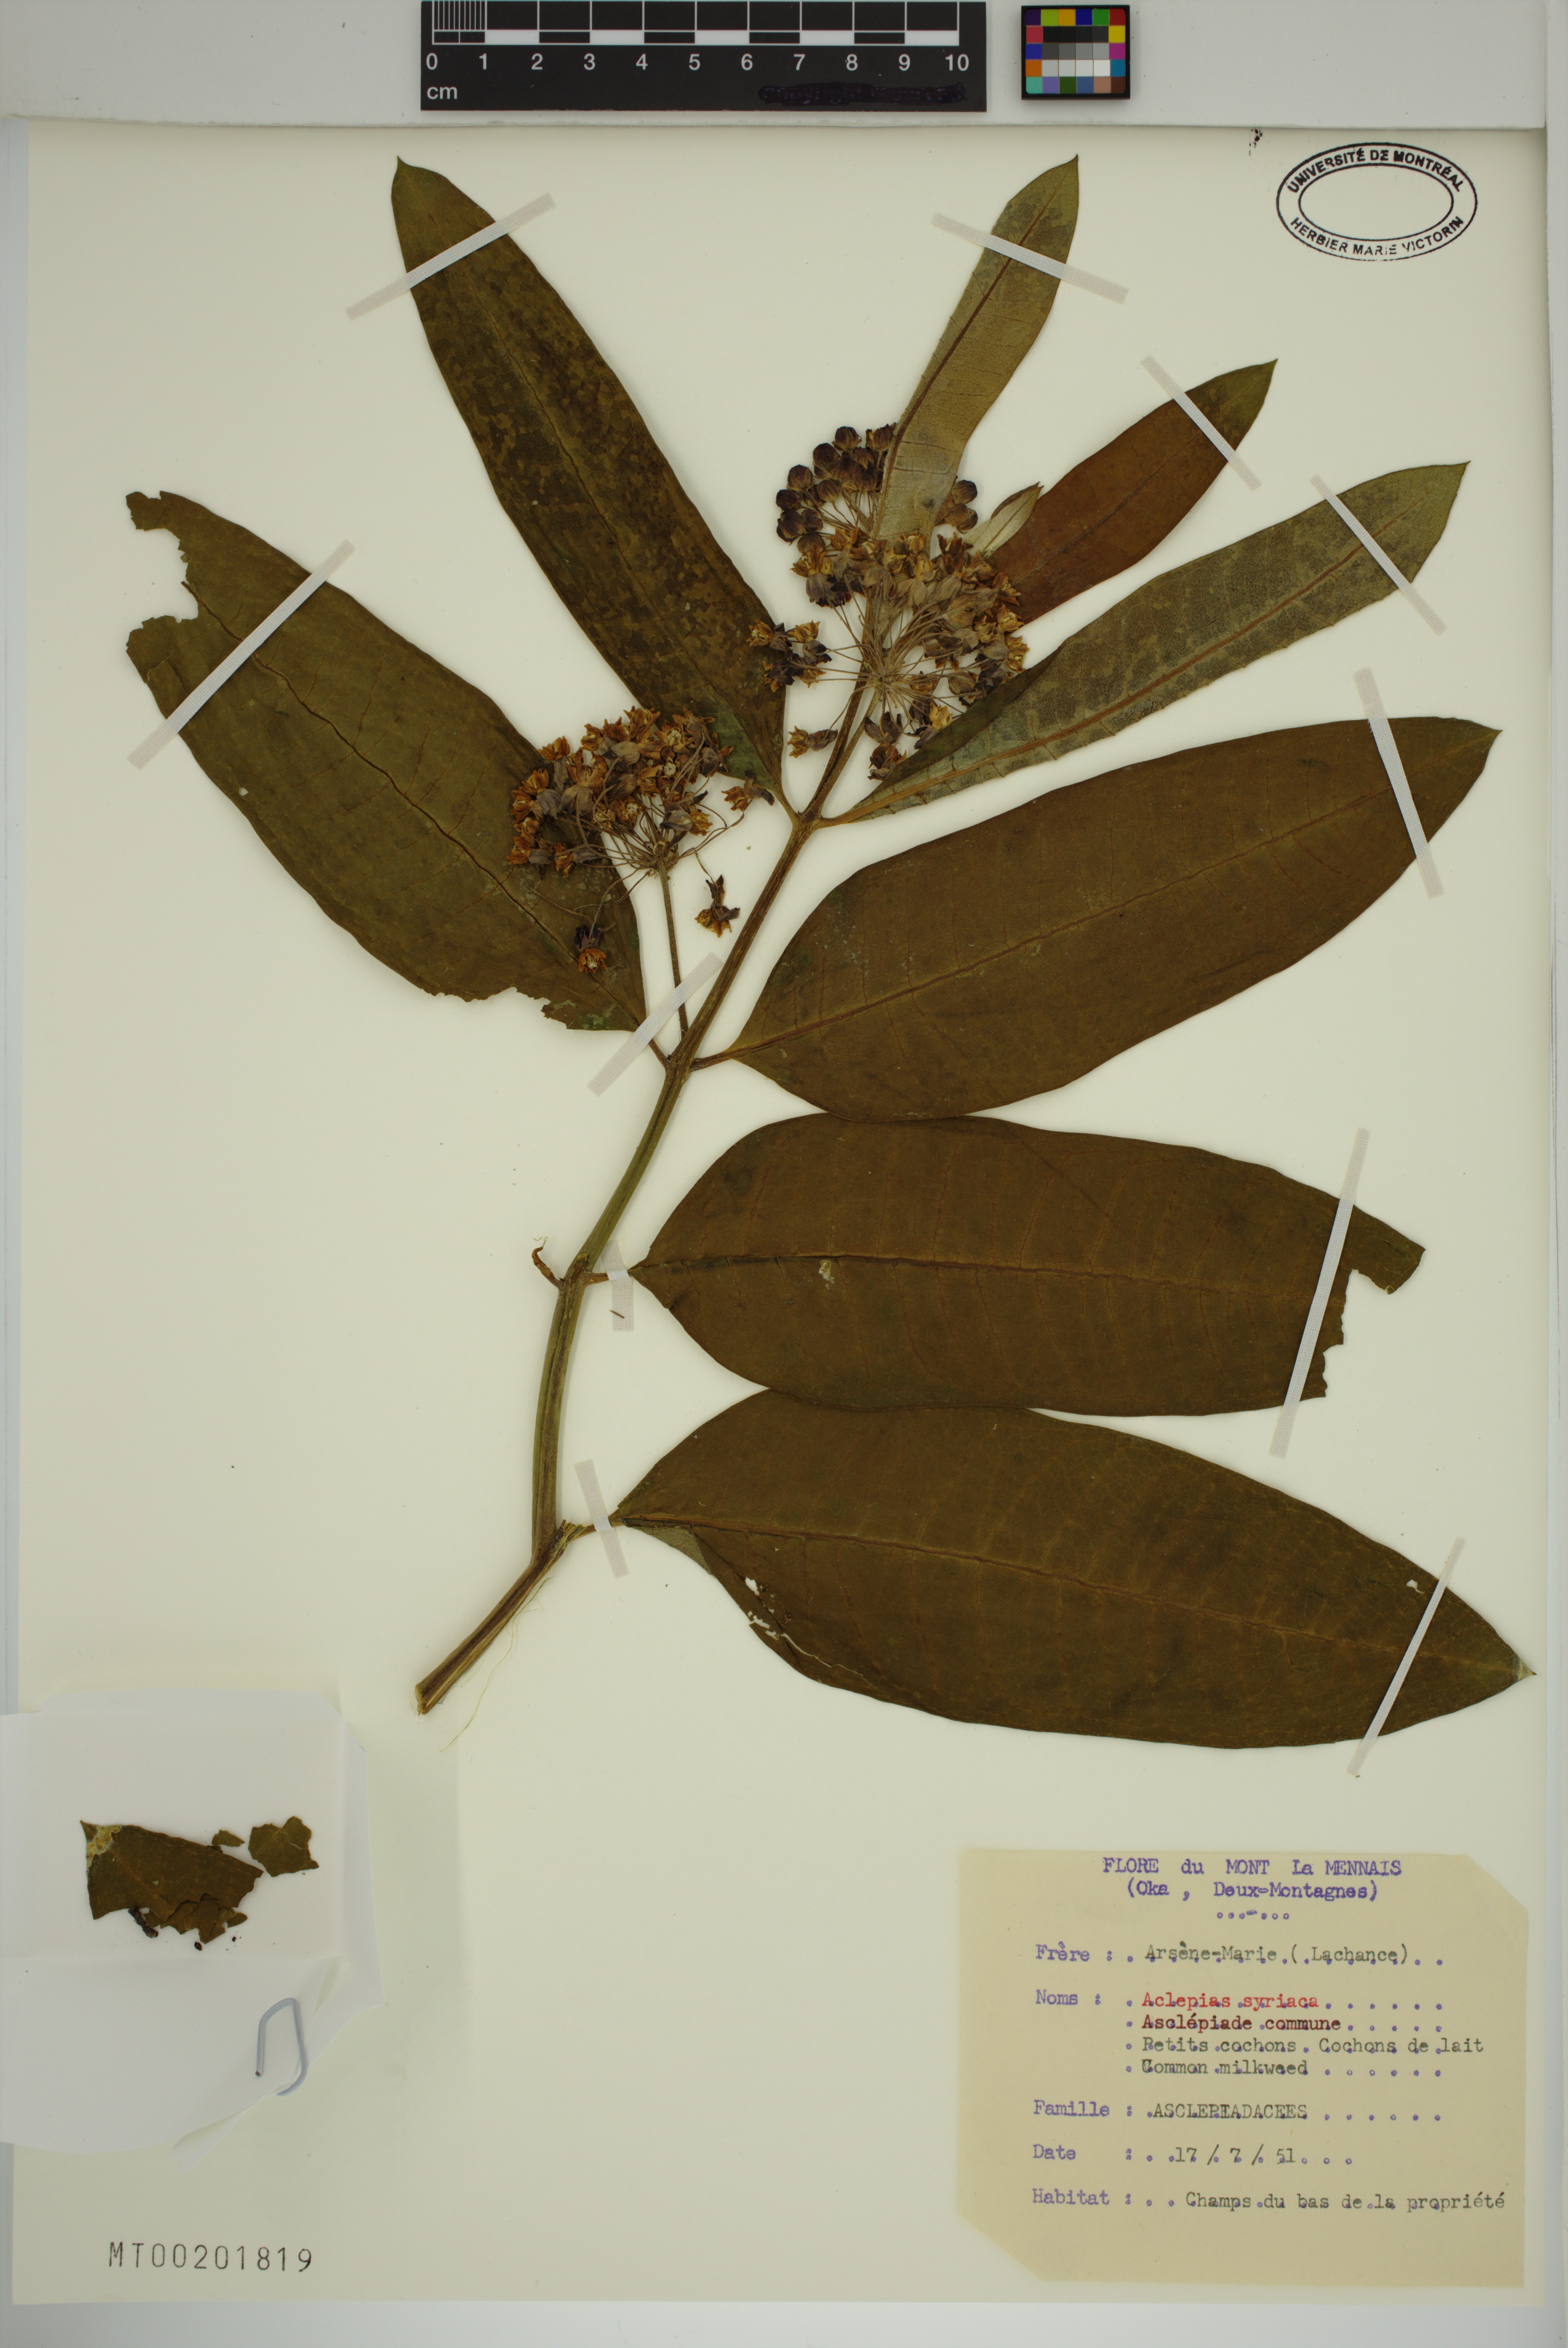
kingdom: Plantae
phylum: Tracheophyta
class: Magnoliopsida
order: Gentianales
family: Apocynaceae
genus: Asclepias
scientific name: Asclepias syriaca
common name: Common milkweed
